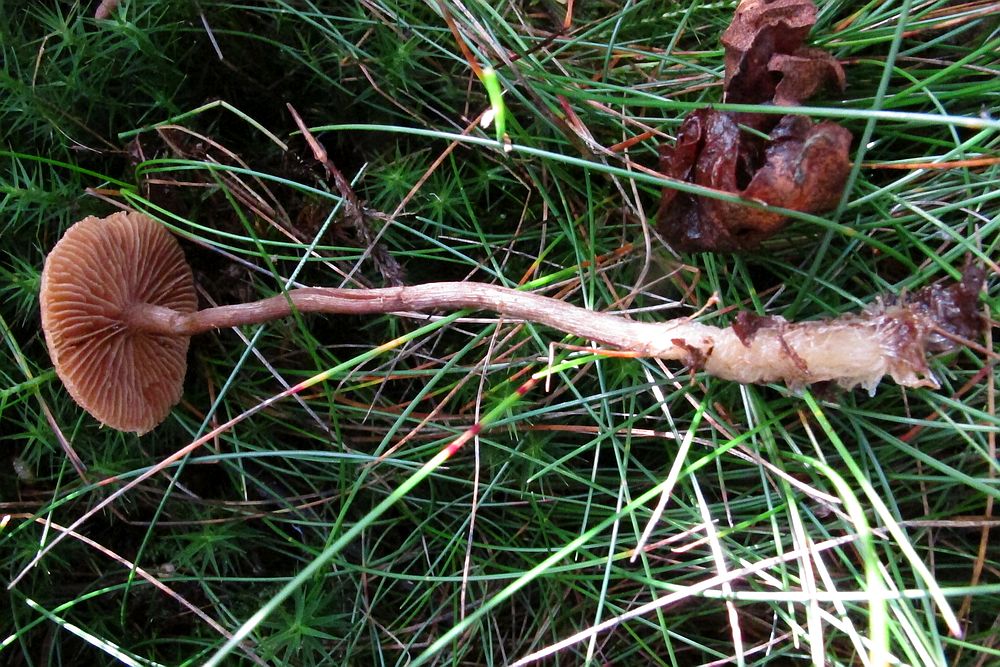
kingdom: Fungi
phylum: Basidiomycota
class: Agaricomycetes
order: Agaricales
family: Hymenogastraceae
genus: Galerina
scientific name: Galerina
